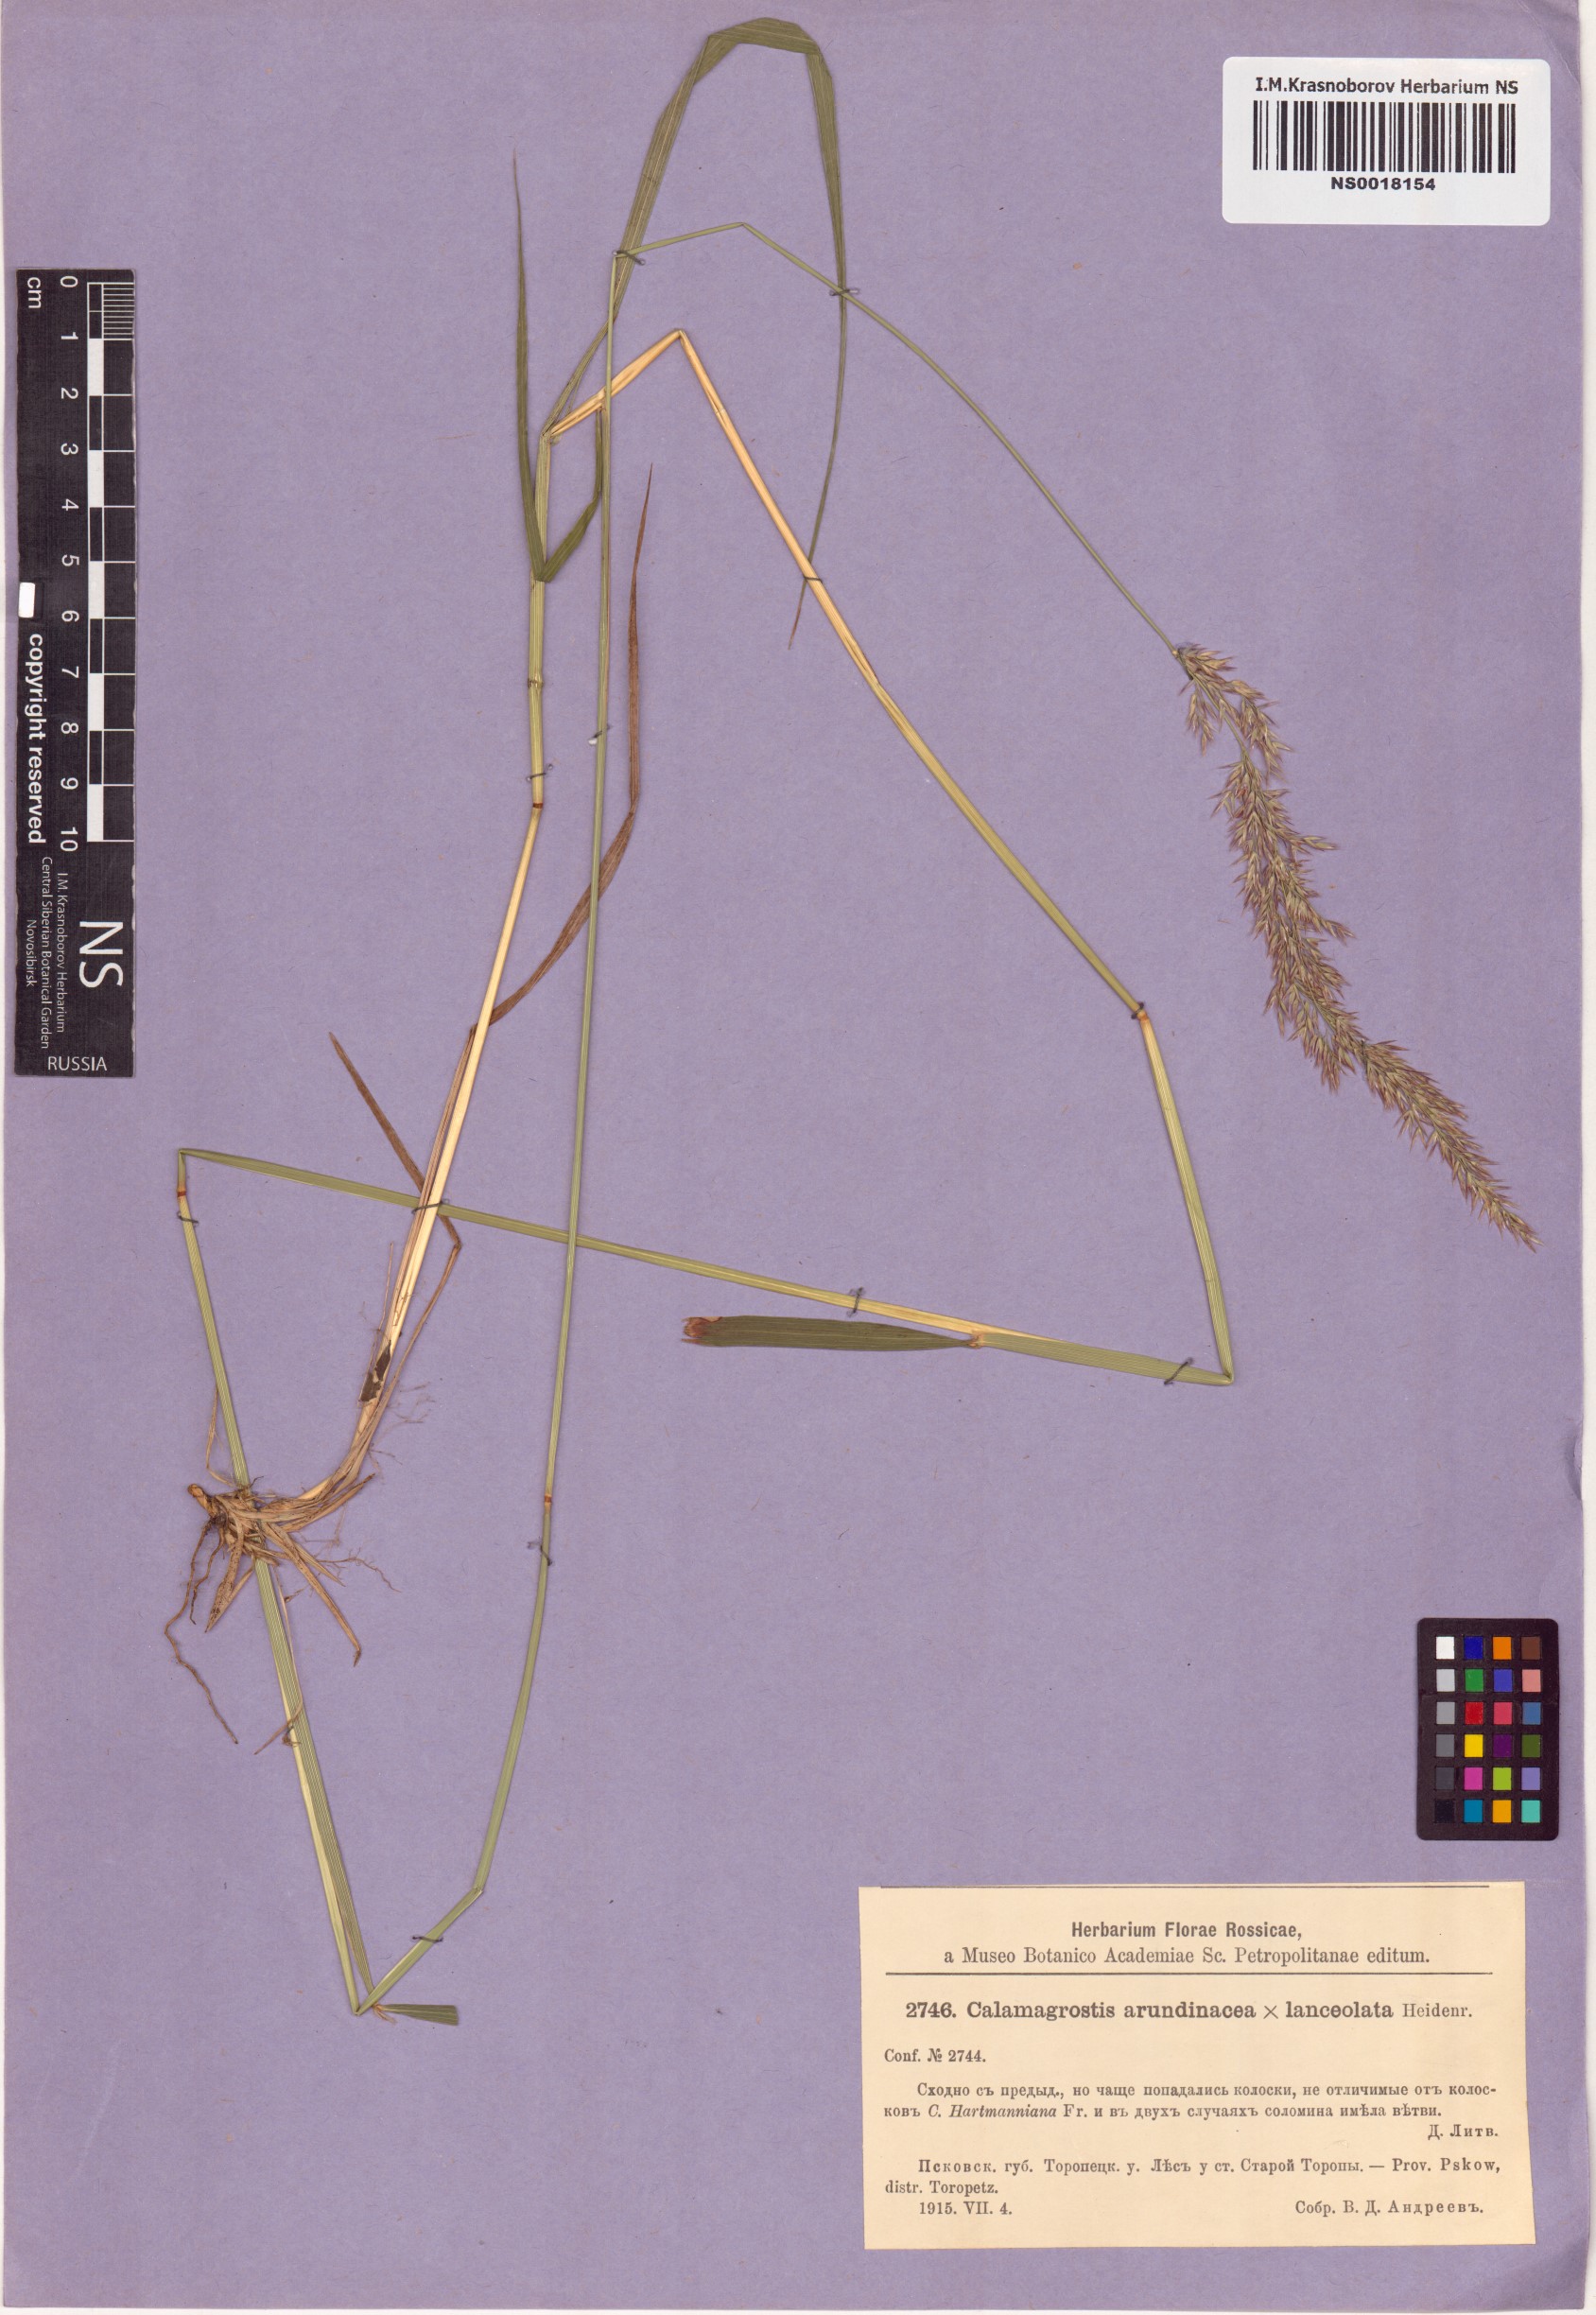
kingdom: Plantae
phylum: Tracheophyta
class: Liliopsida
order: Poales
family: Poaceae
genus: Calamagrostis
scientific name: Calamagrostis arundinacea
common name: Metskastik
